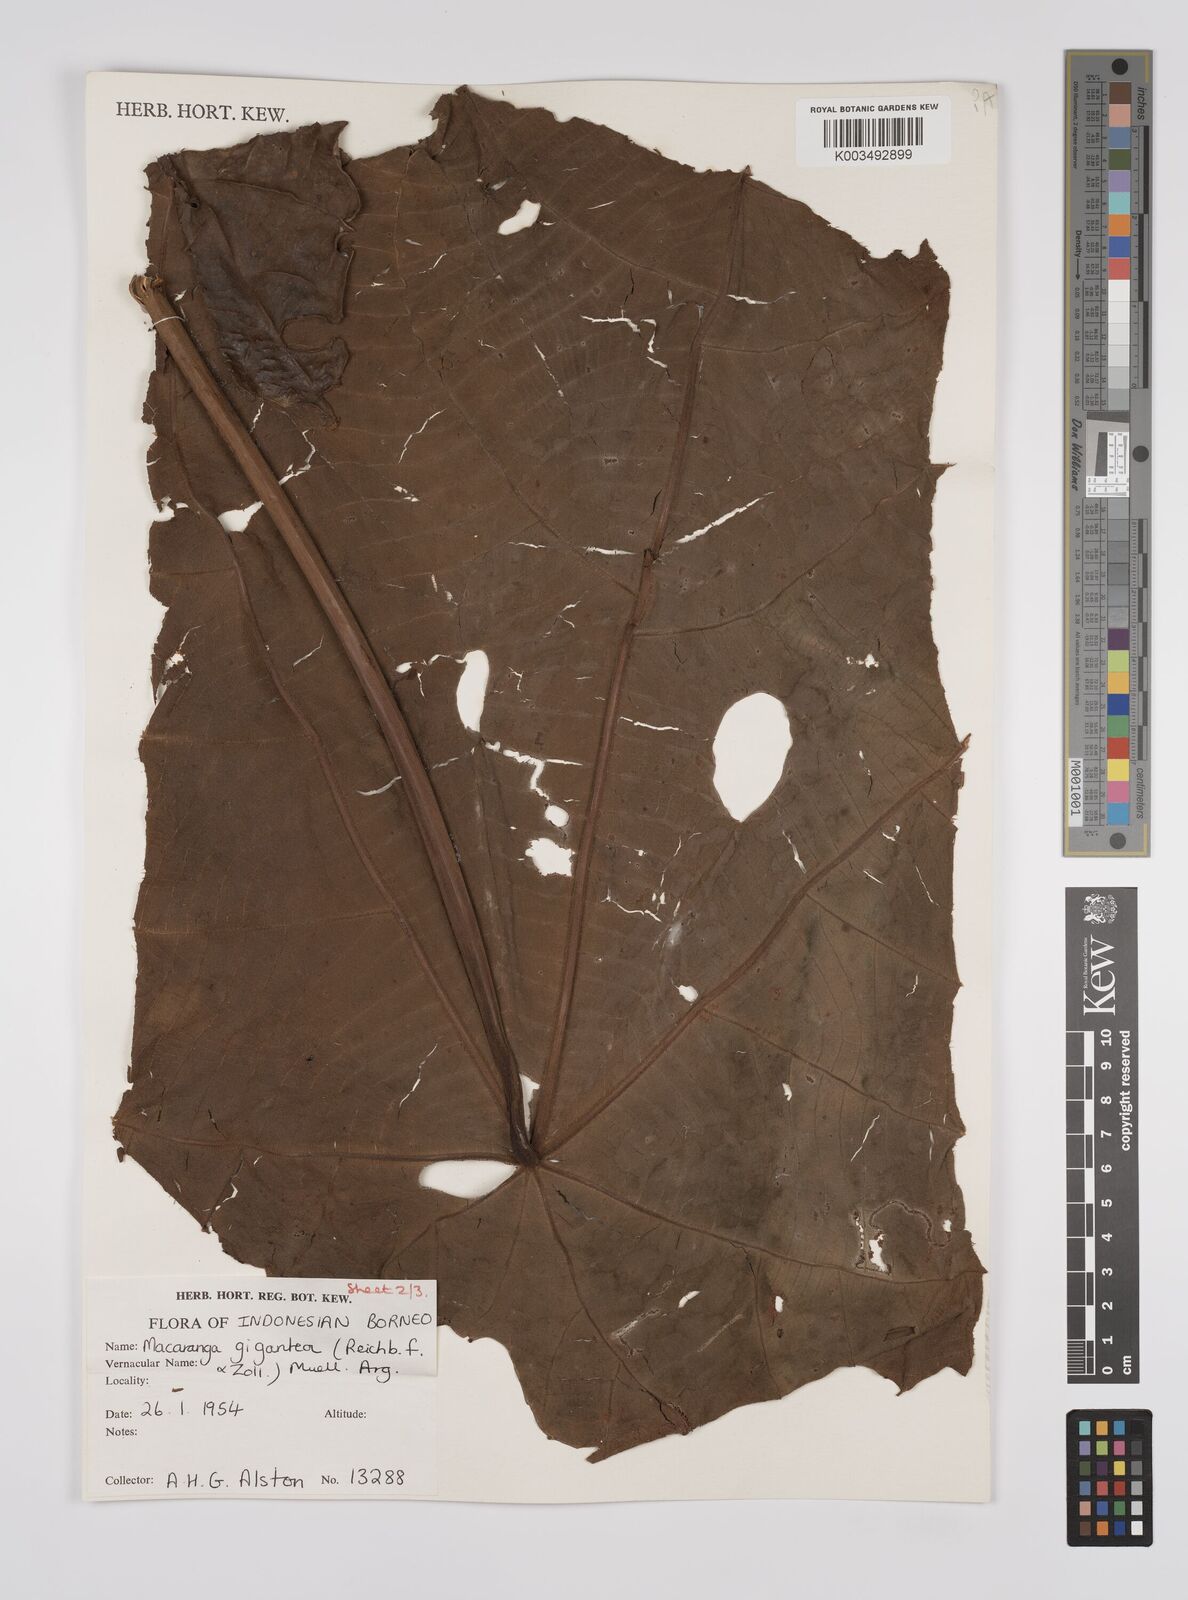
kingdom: Plantae
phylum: Tracheophyta
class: Magnoliopsida
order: Malpighiales
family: Euphorbiaceae
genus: Macaranga
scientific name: Macaranga gigantea
